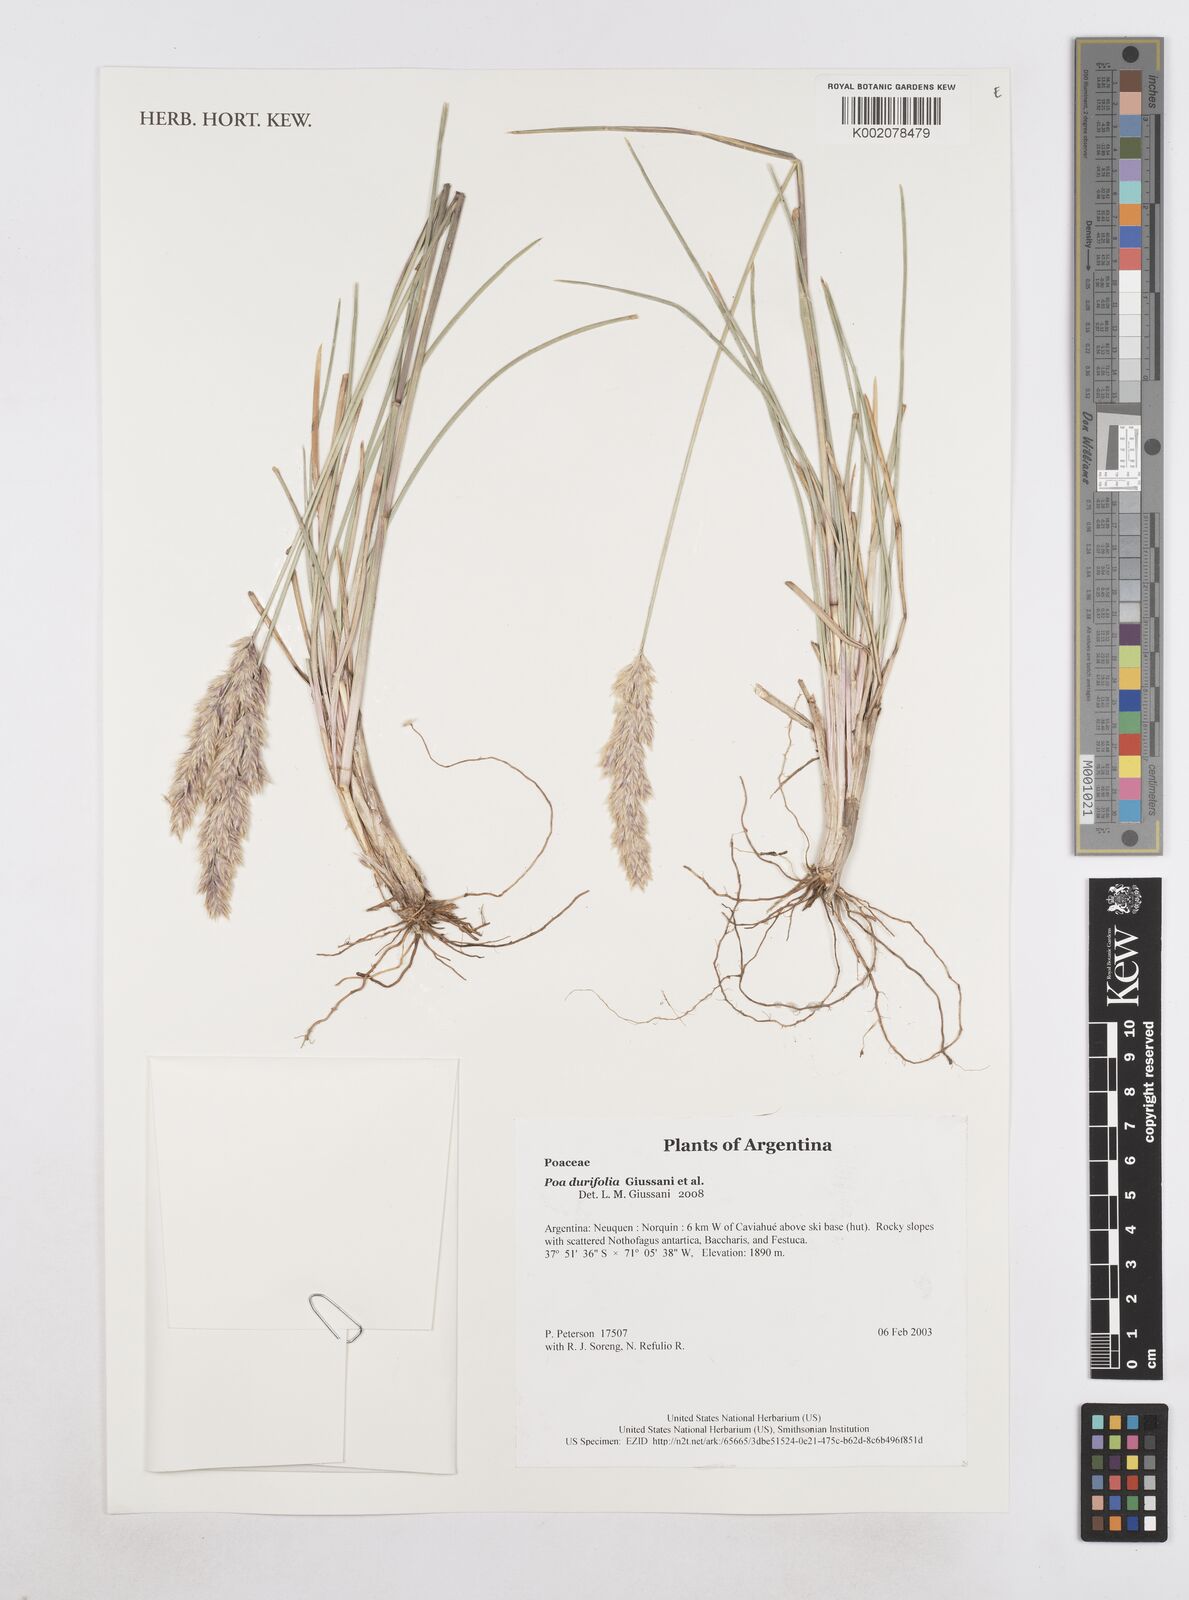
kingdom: Plantae
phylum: Tracheophyta
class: Liliopsida
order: Poales
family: Poaceae
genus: Poa
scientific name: Poa durifolia
